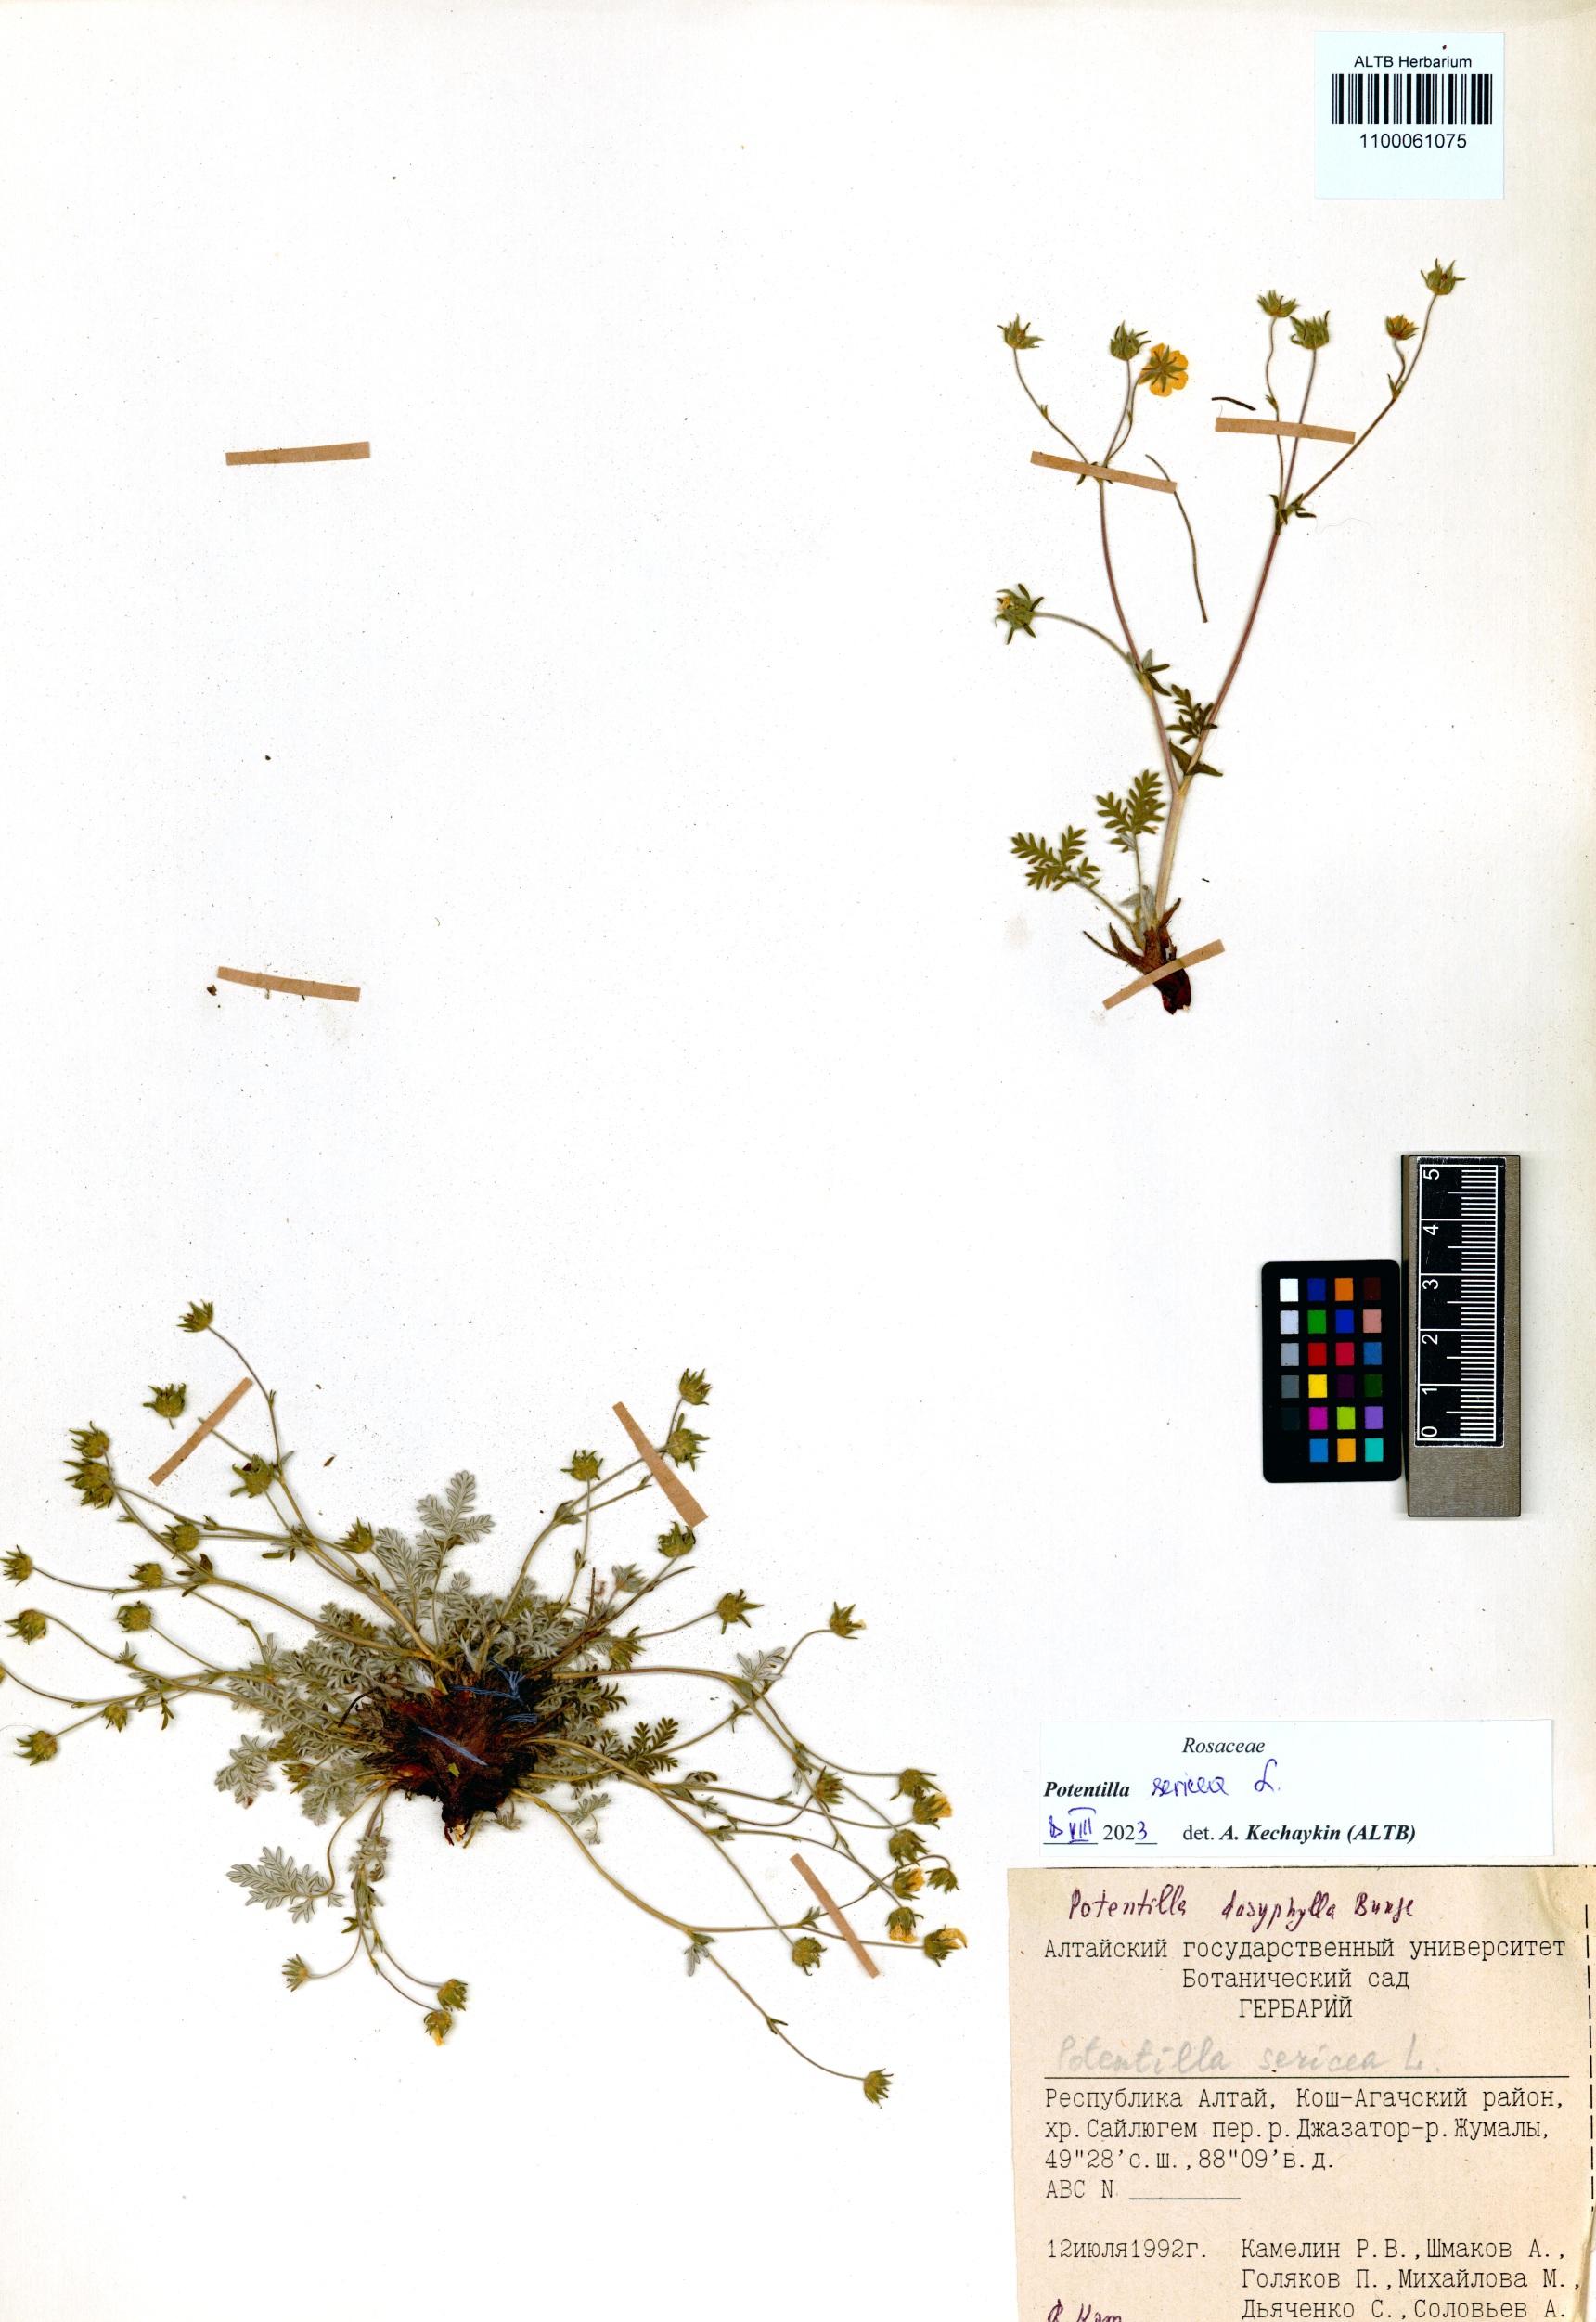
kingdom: Plantae
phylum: Tracheophyta
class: Magnoliopsida
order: Rosales
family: Rosaceae
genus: Potentilla
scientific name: Potentilla sericea
